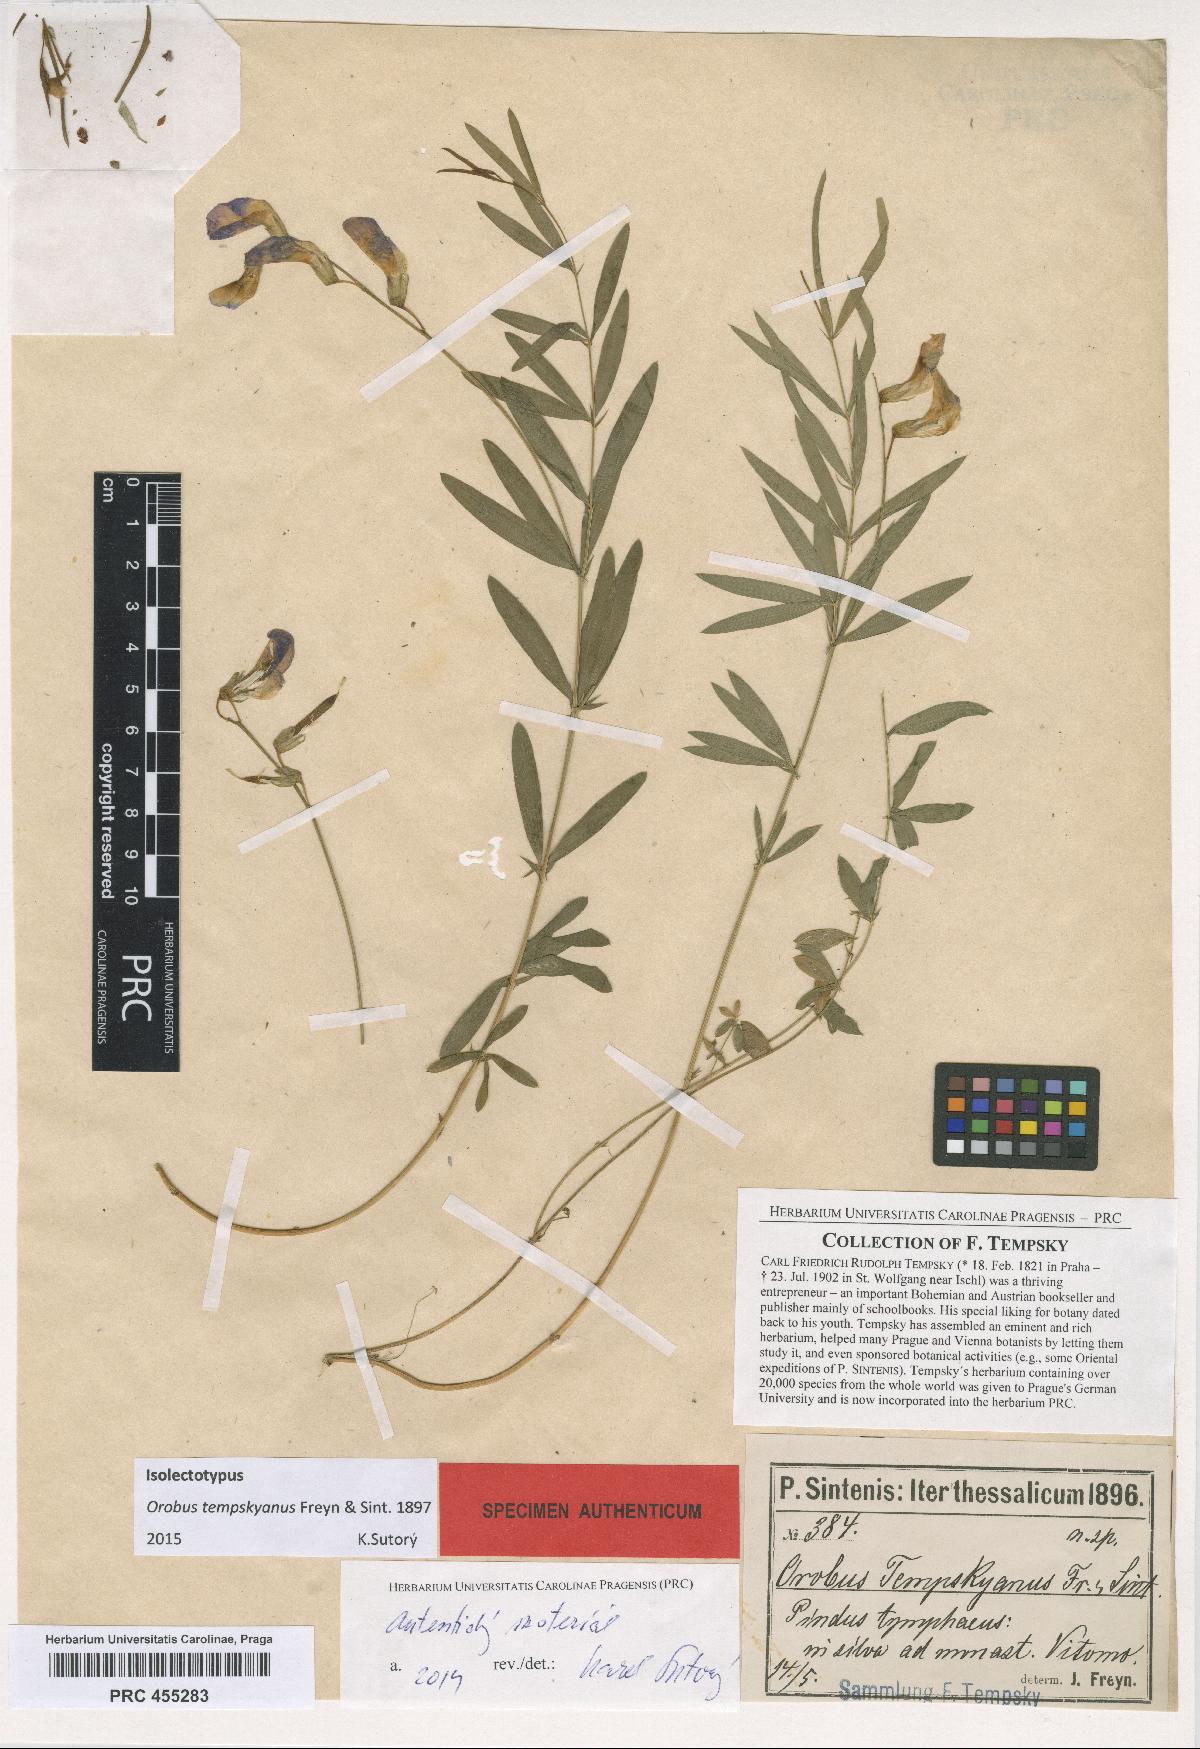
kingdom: Plantae
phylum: Tracheophyta
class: Magnoliopsida
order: Fabales
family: Fabaceae
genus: Lathyrus
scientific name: Lathyrus digitatus
